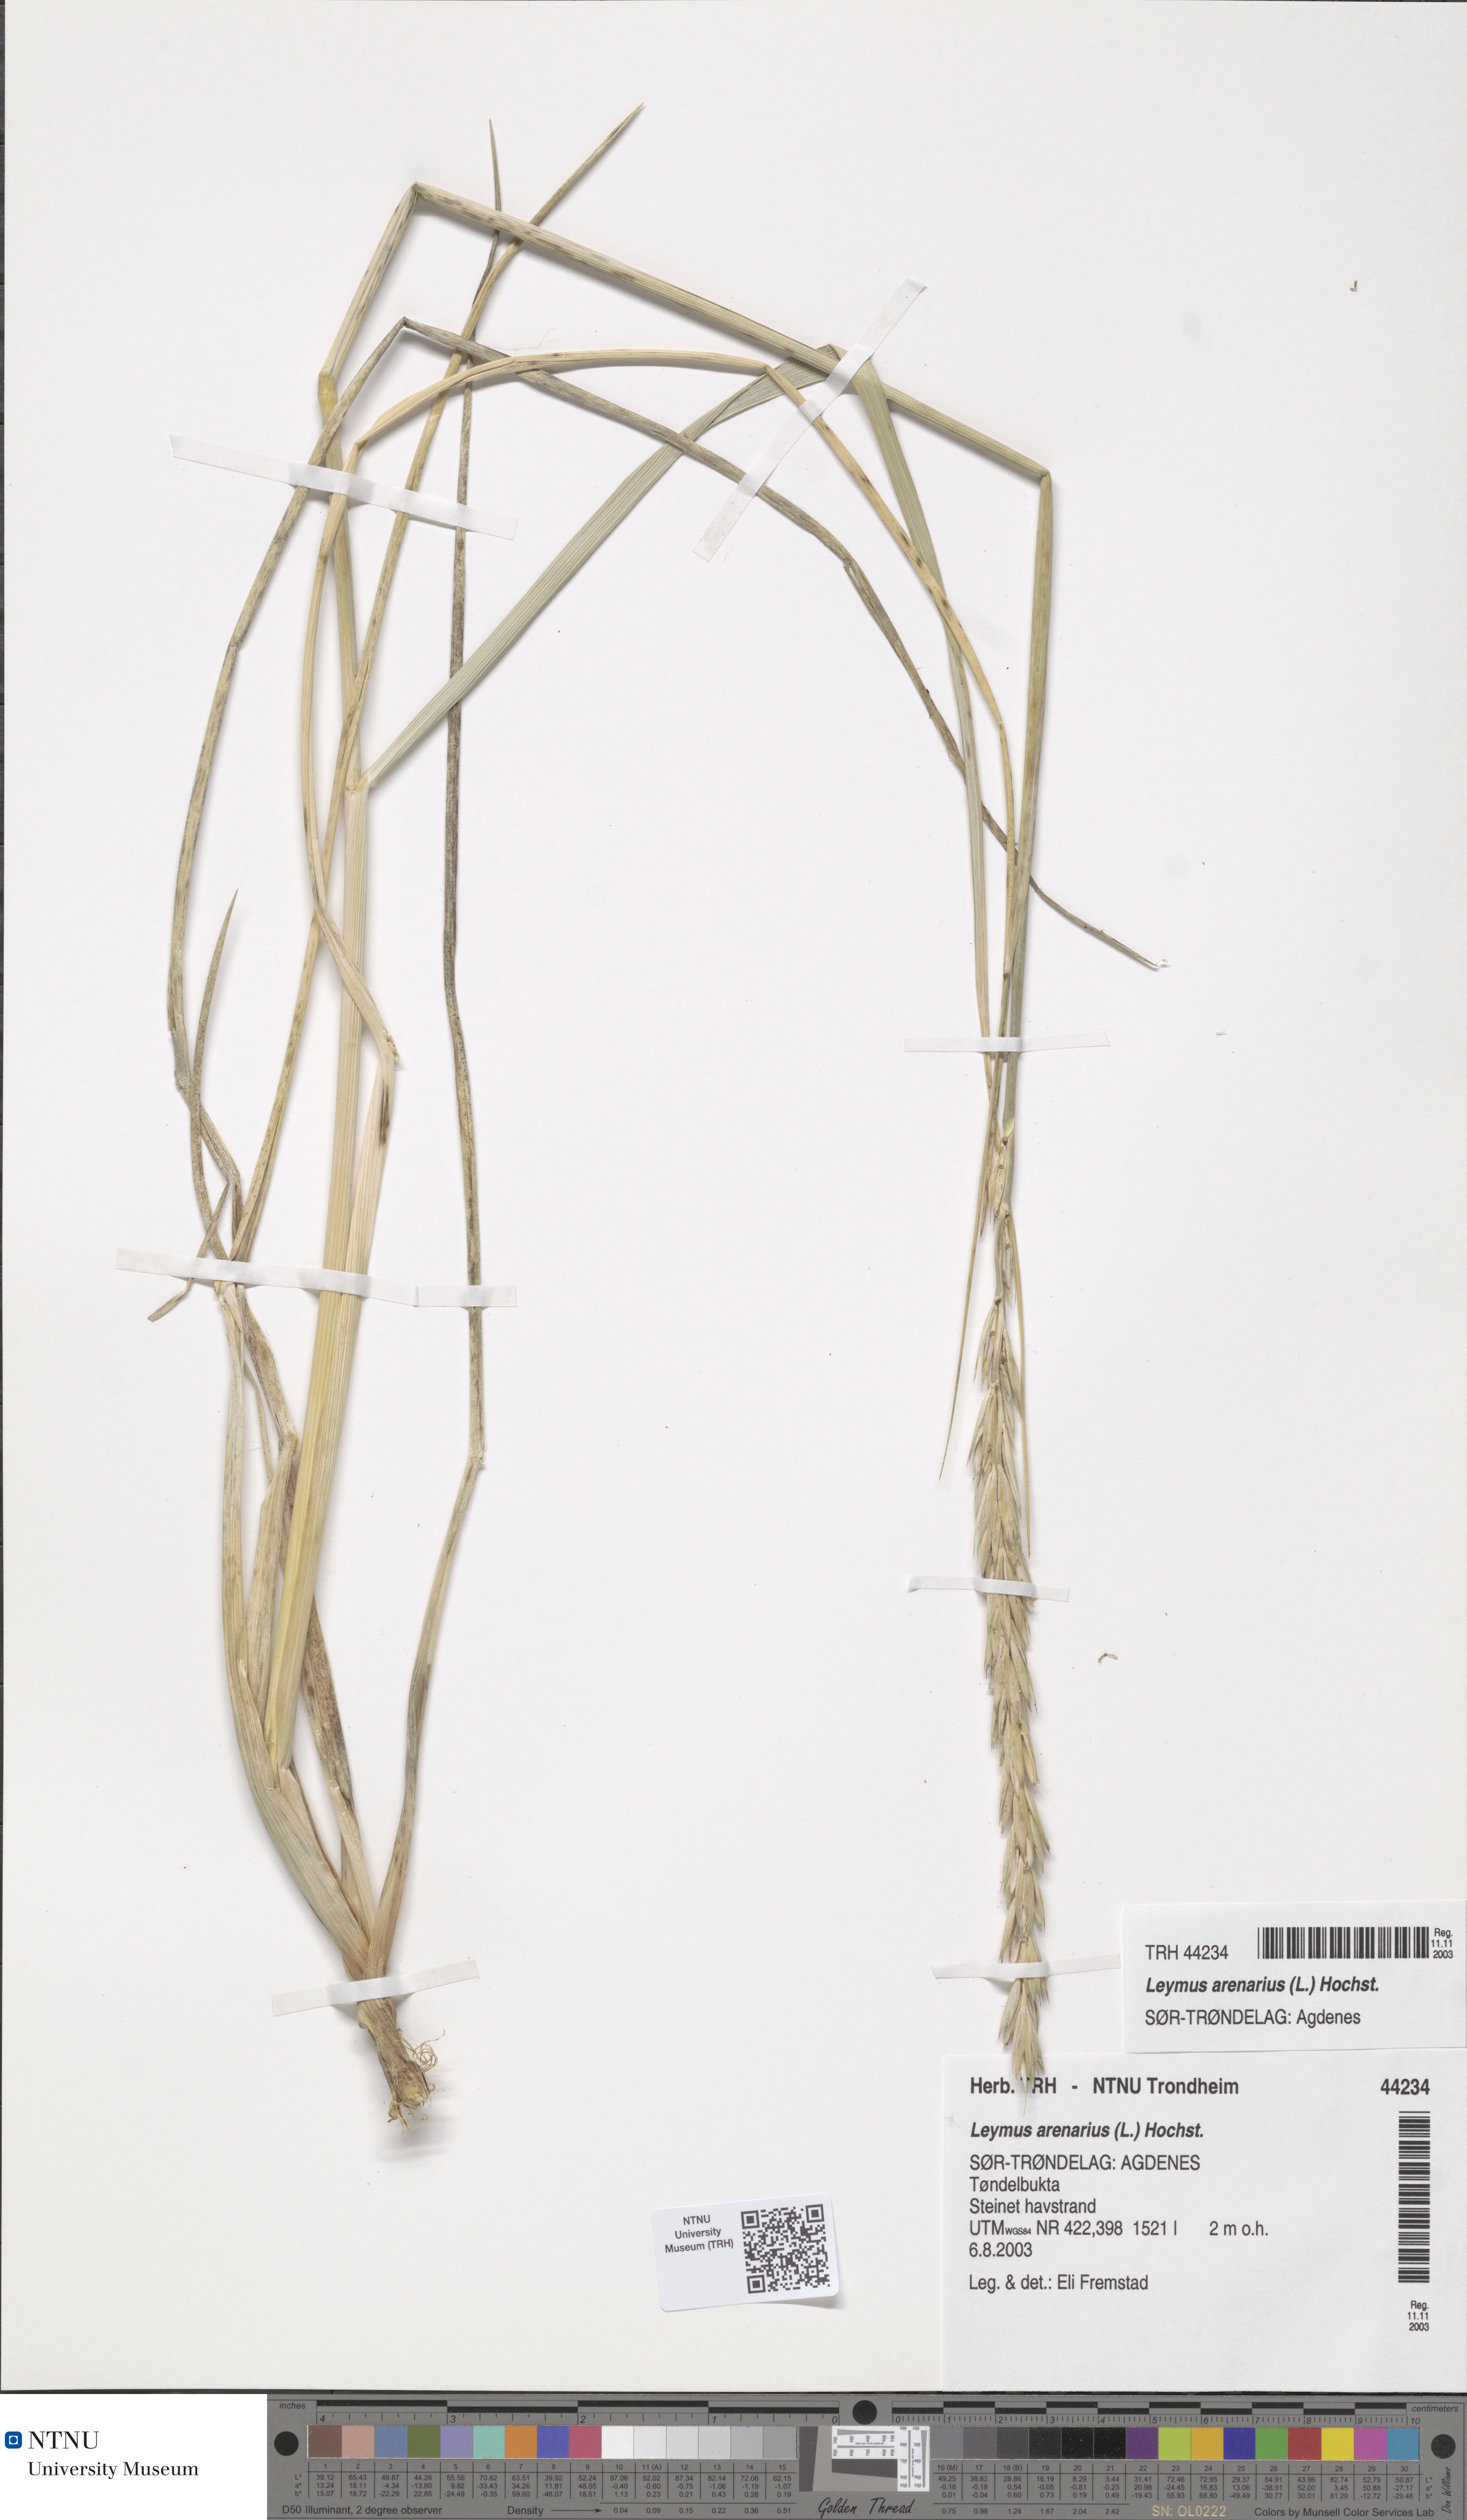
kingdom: Plantae
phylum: Tracheophyta
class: Liliopsida
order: Poales
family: Poaceae
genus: Leymus
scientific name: Leymus arenarius
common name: Lyme-grass
